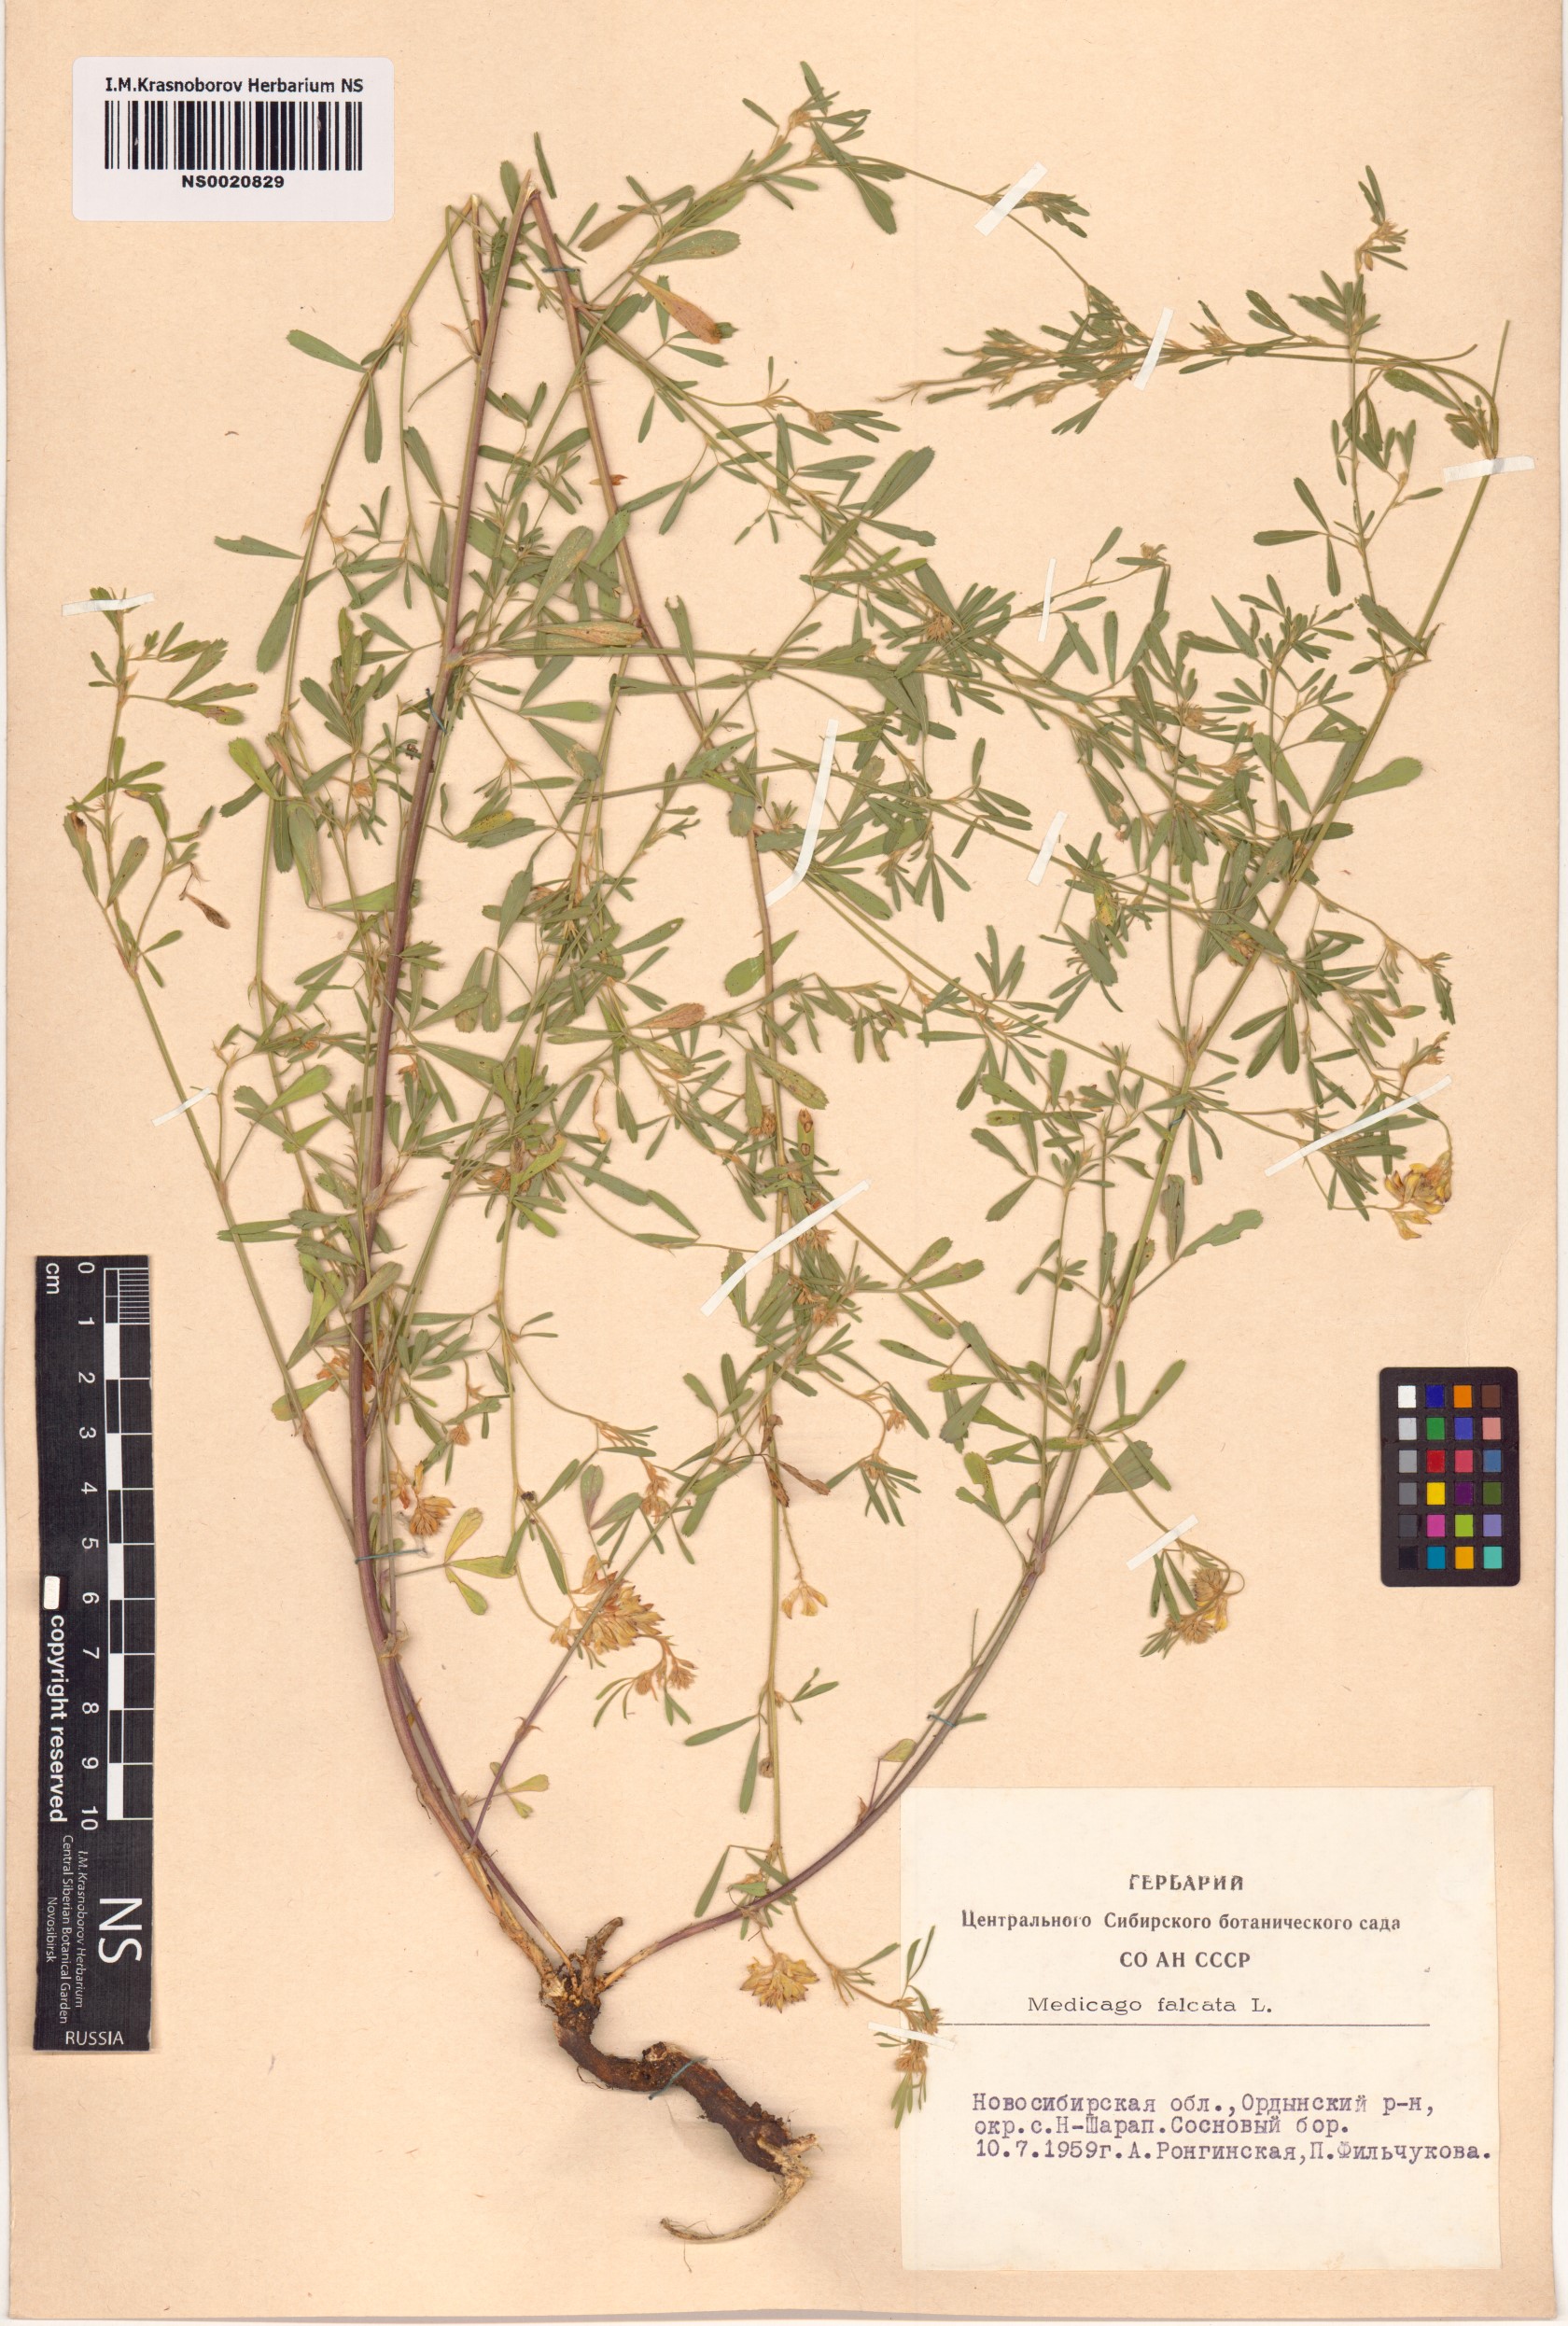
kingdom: Plantae
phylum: Tracheophyta
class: Magnoliopsida
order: Fabales
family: Fabaceae
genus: Medicago
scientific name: Medicago falcata
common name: Sickle medick
